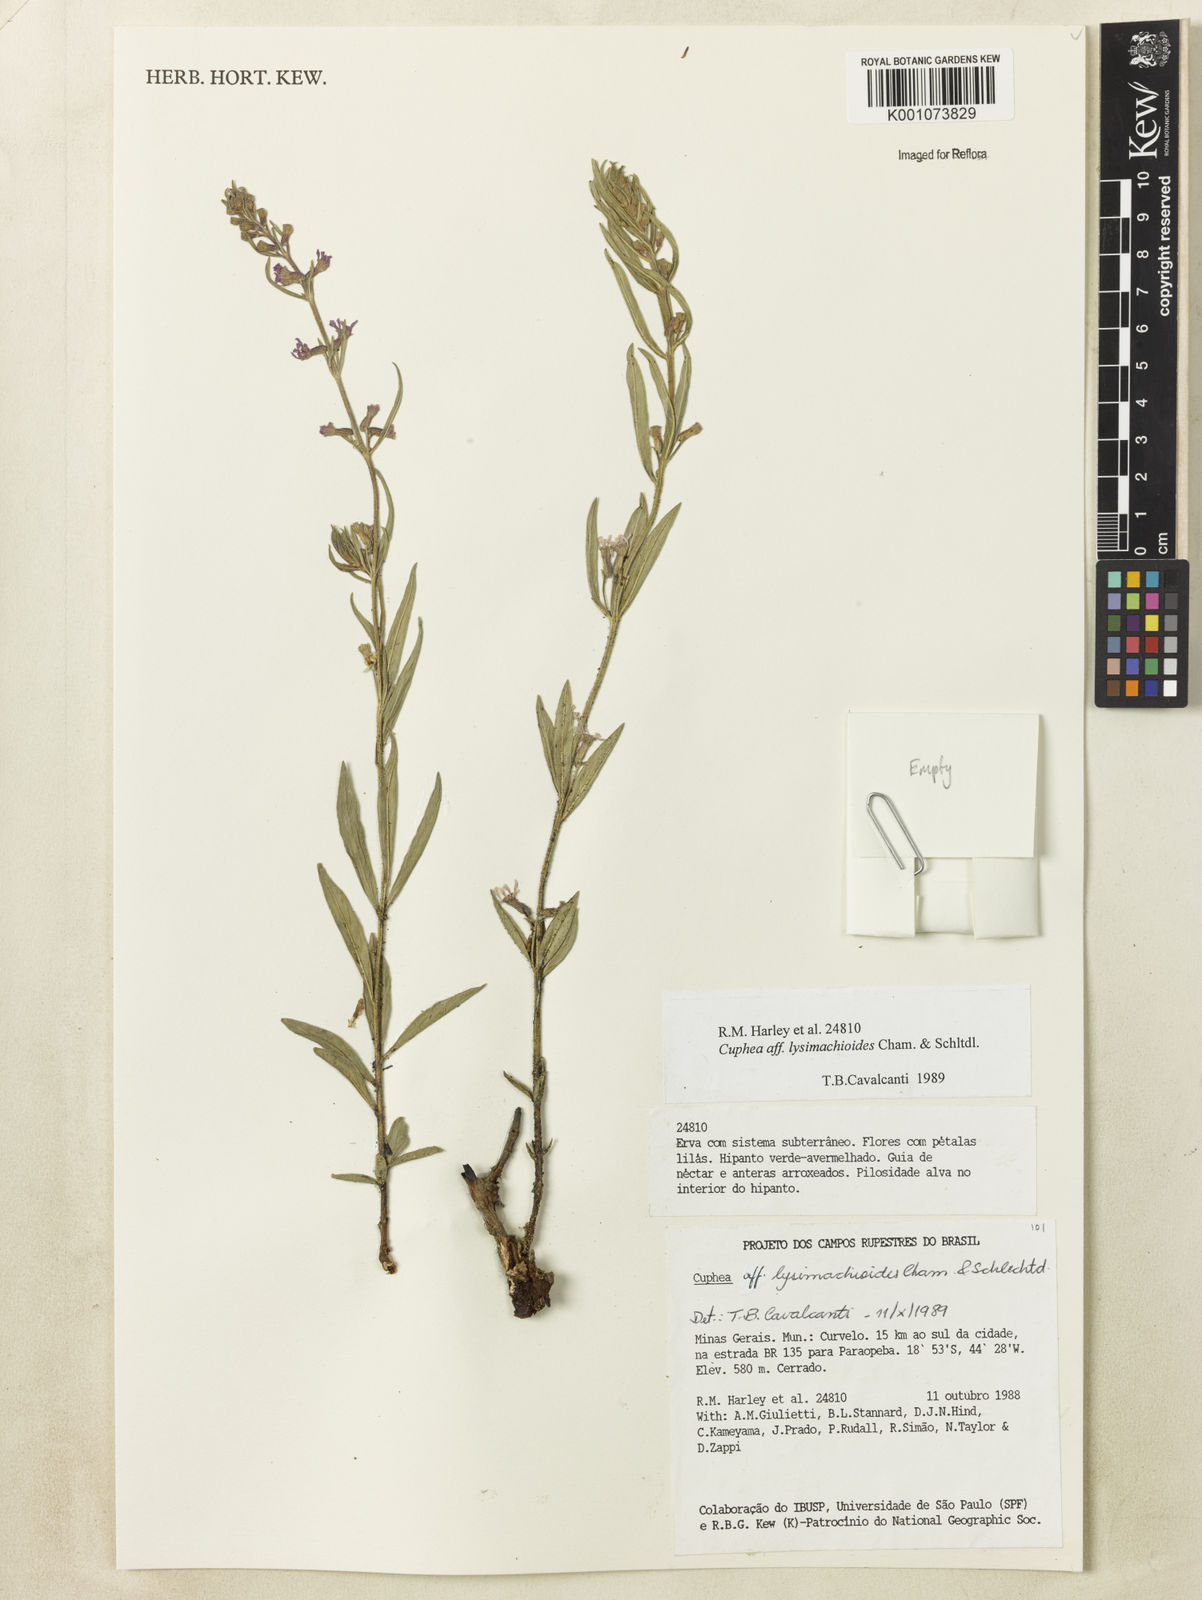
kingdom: Plantae
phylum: Tracheophyta
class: Magnoliopsida
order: Myrtales
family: Lythraceae
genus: Cuphea
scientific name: Cuphea lysimachioides
